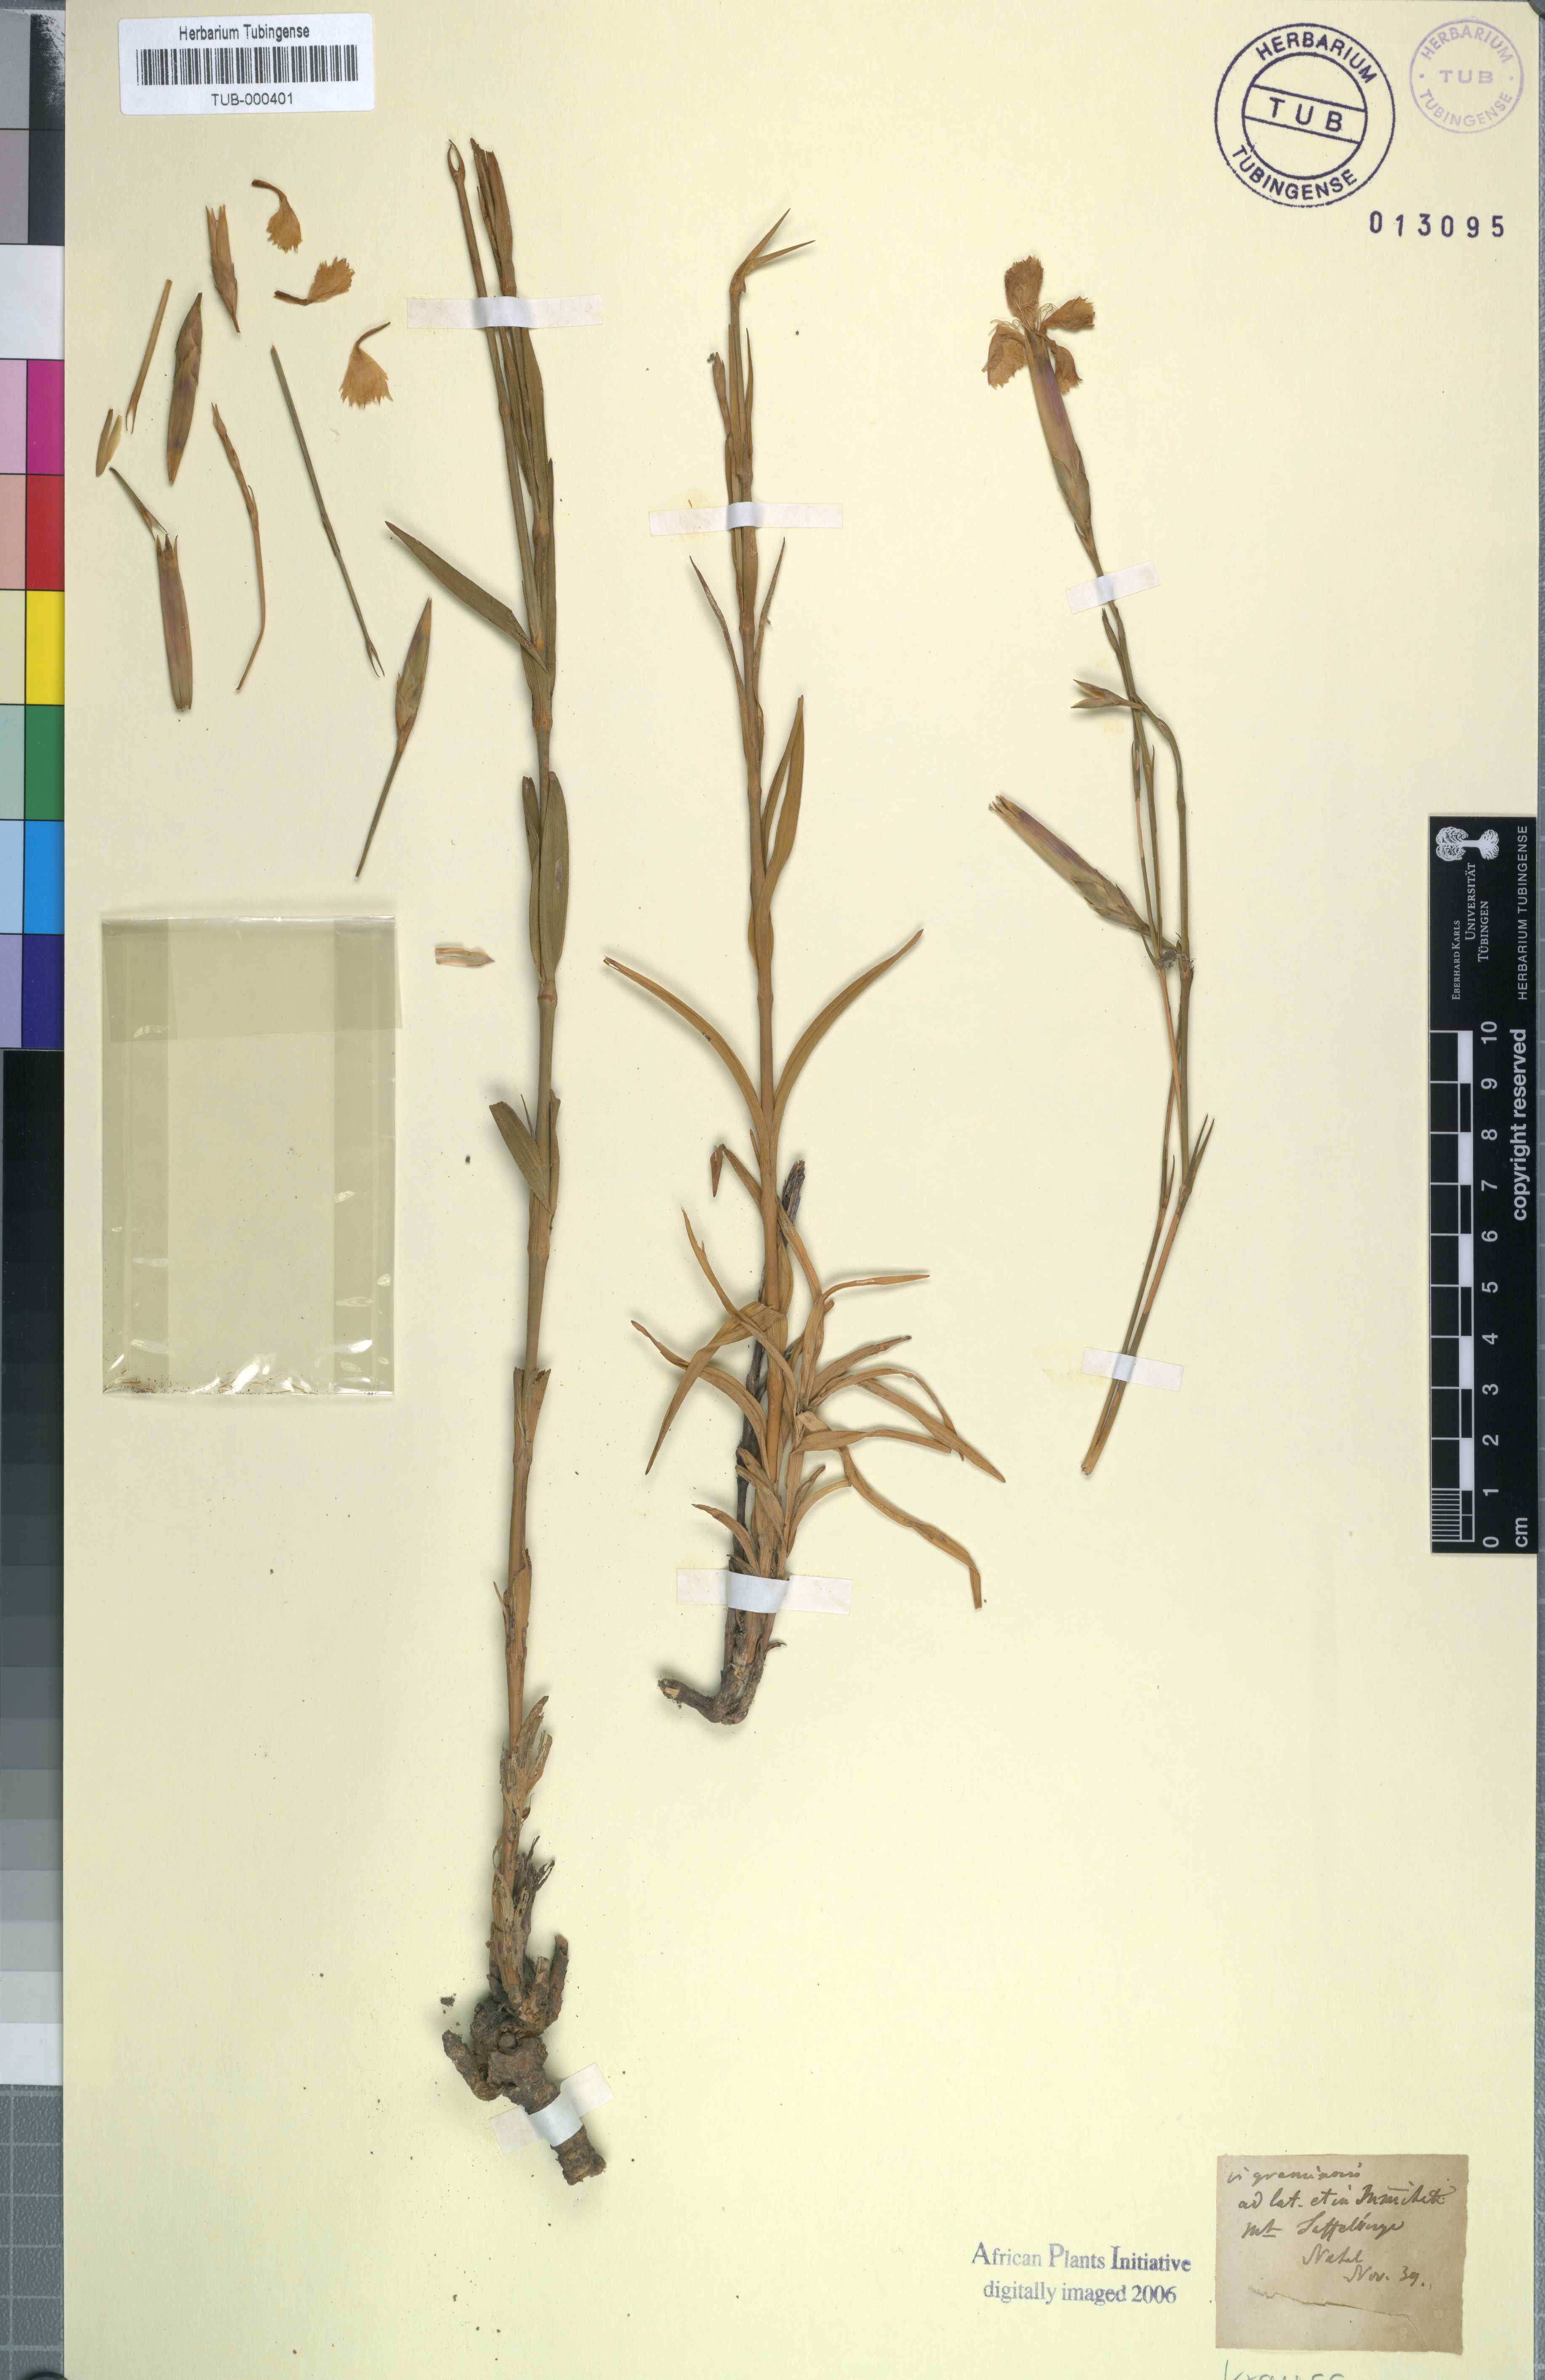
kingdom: Plantae
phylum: Tracheophyta
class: Magnoliopsida
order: Caryophyllales
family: Caryophyllaceae
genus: Dianthus
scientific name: Dianthus caespitosus
